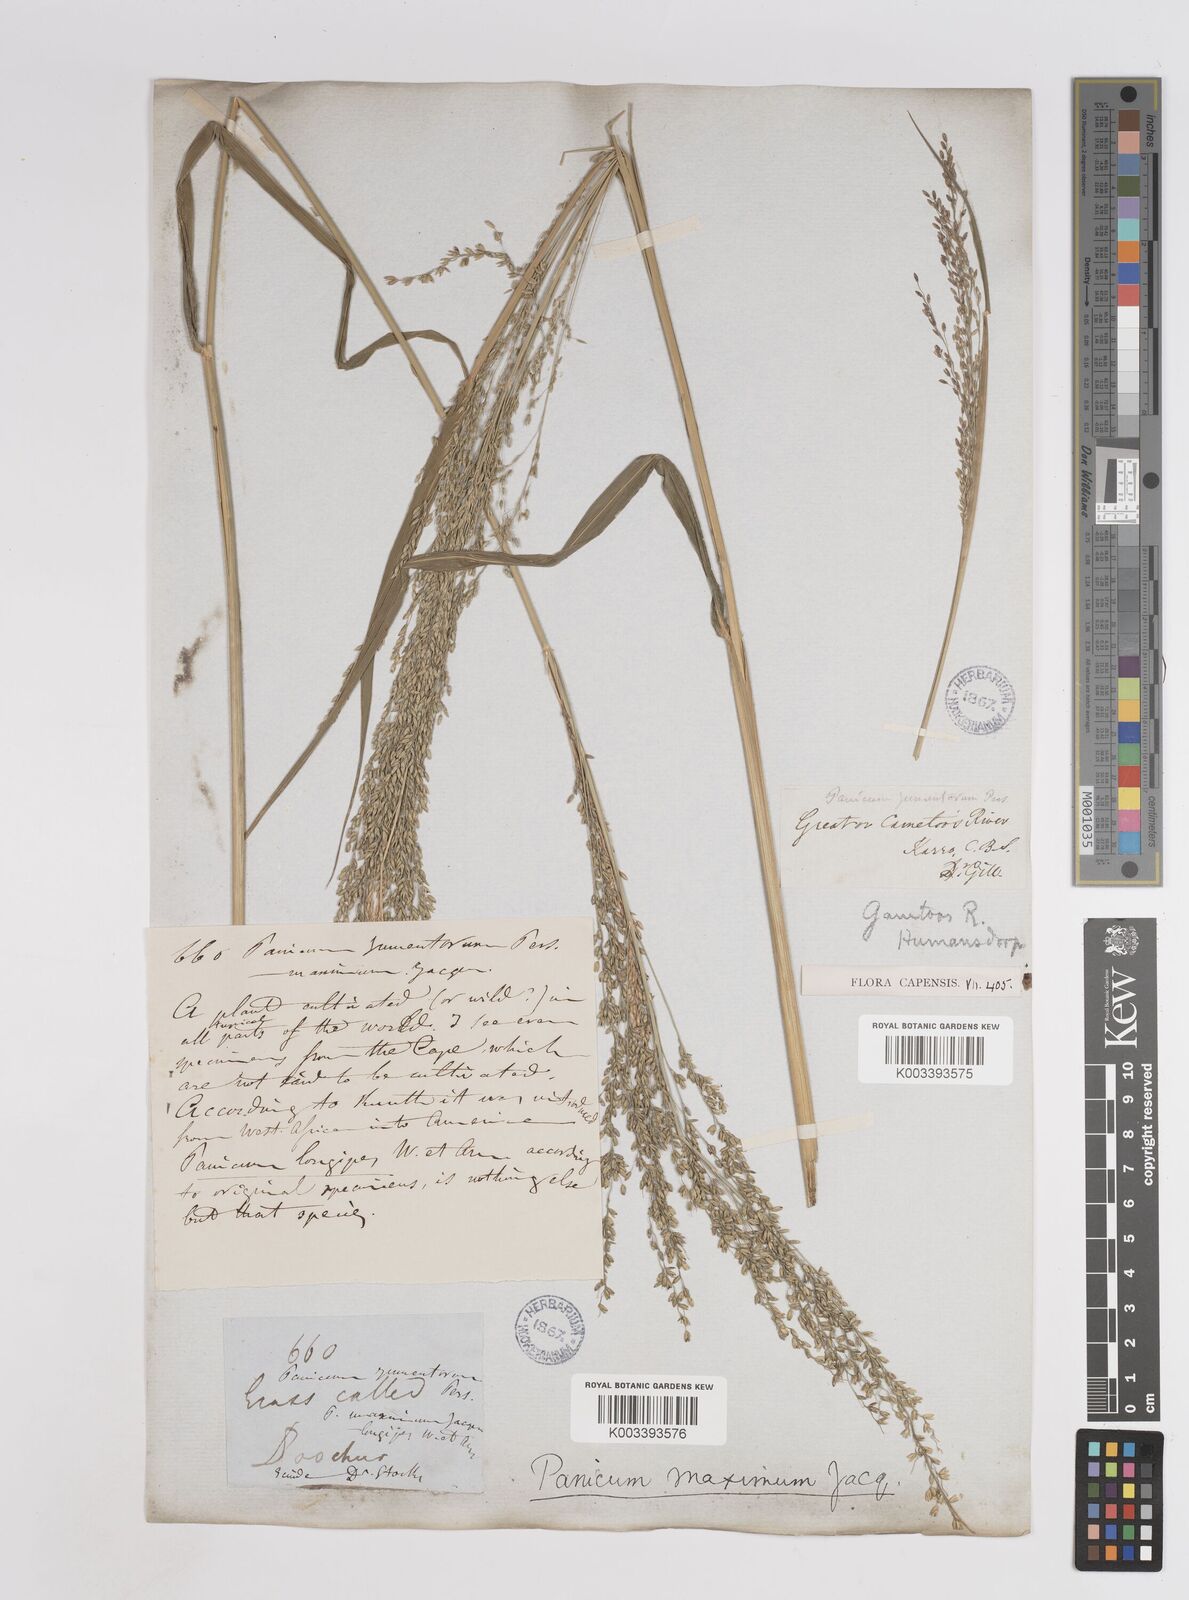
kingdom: Plantae
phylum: Tracheophyta
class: Liliopsida
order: Poales
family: Poaceae
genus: Megathyrsus
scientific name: Megathyrsus maximus
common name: Guineagrass
